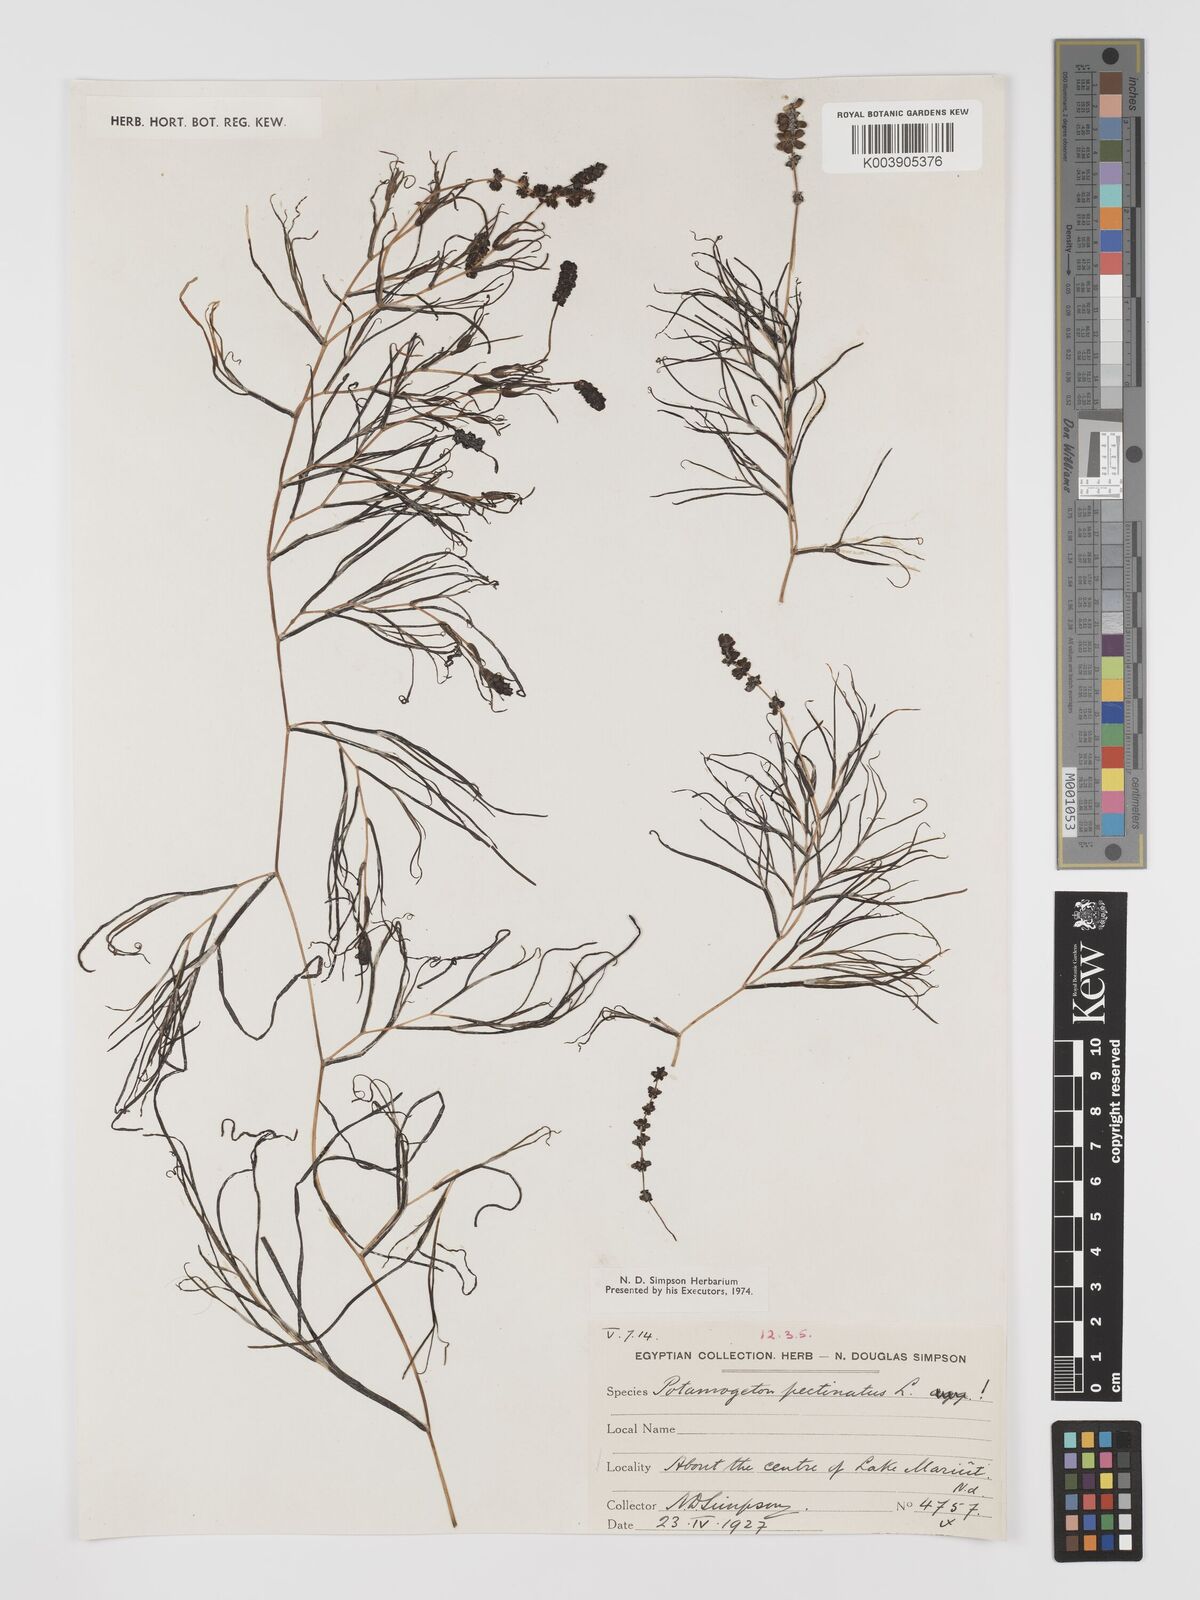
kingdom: Plantae
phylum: Tracheophyta
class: Liliopsida
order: Alismatales
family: Potamogetonaceae
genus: Stuckenia
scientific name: Stuckenia pectinata
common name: Sago pondweed
